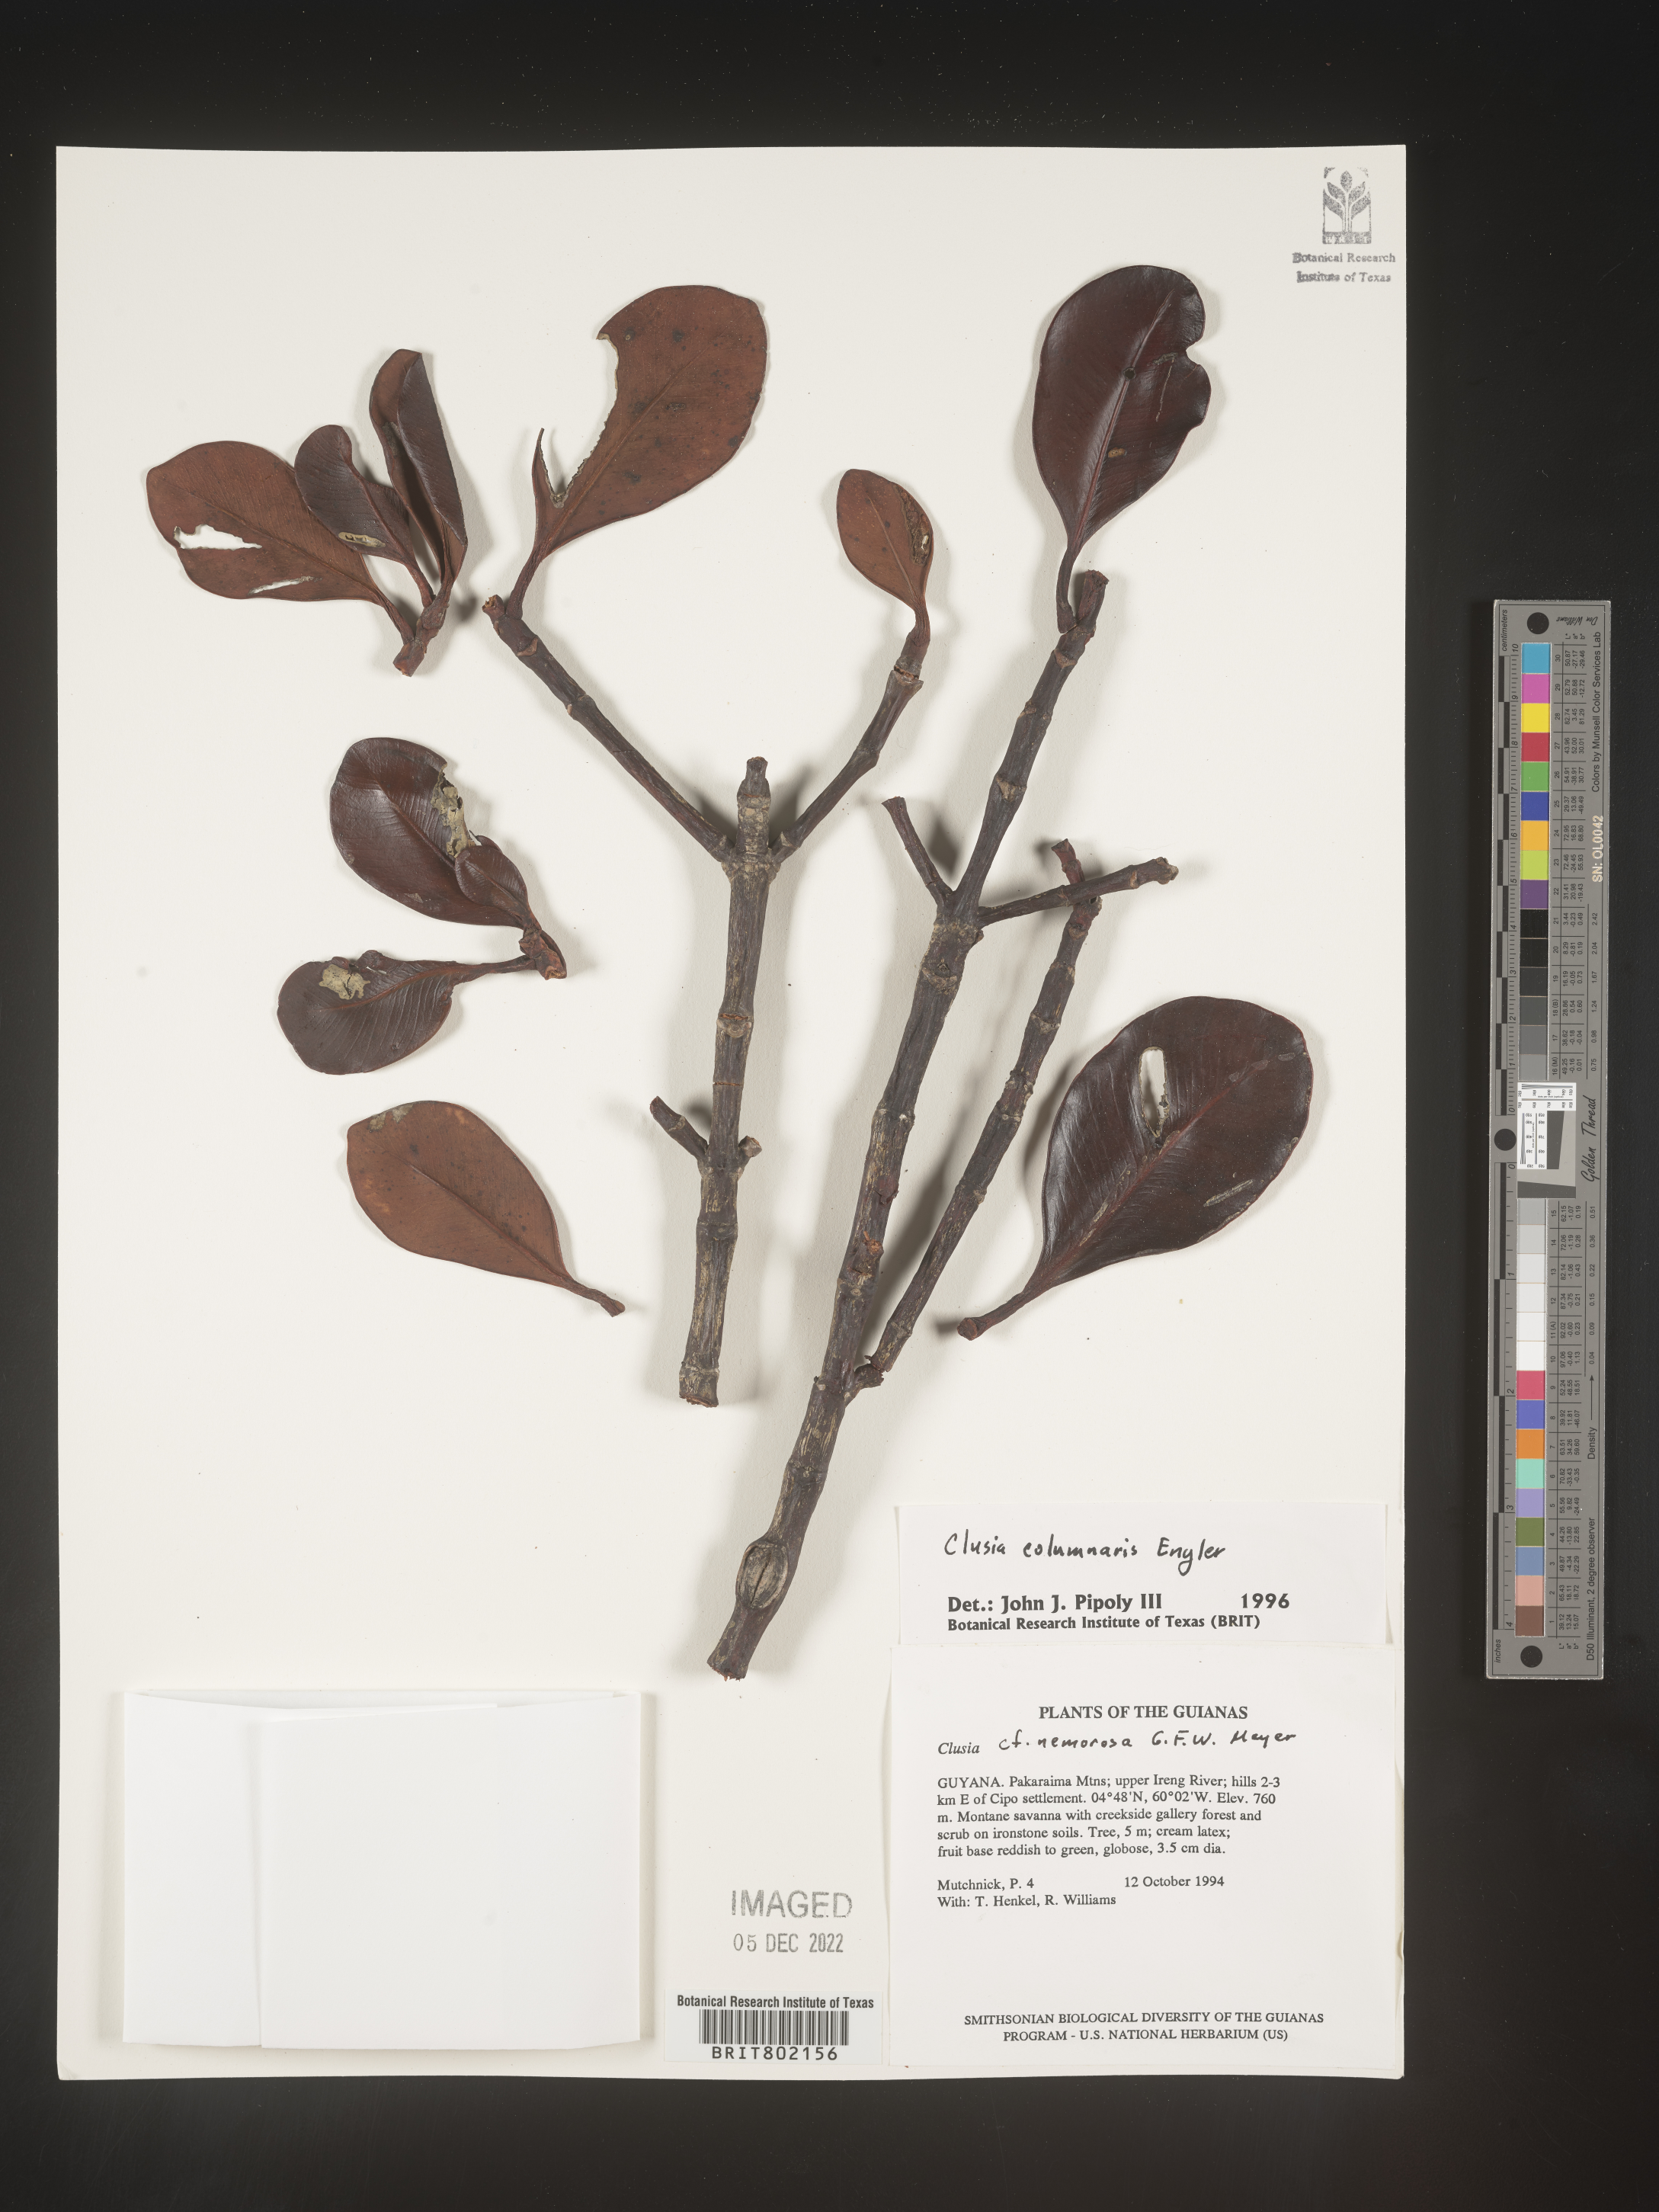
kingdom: Plantae
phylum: Tracheophyta
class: Magnoliopsida
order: Malpighiales
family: Clusiaceae
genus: Clusia
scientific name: Clusia columnaris
